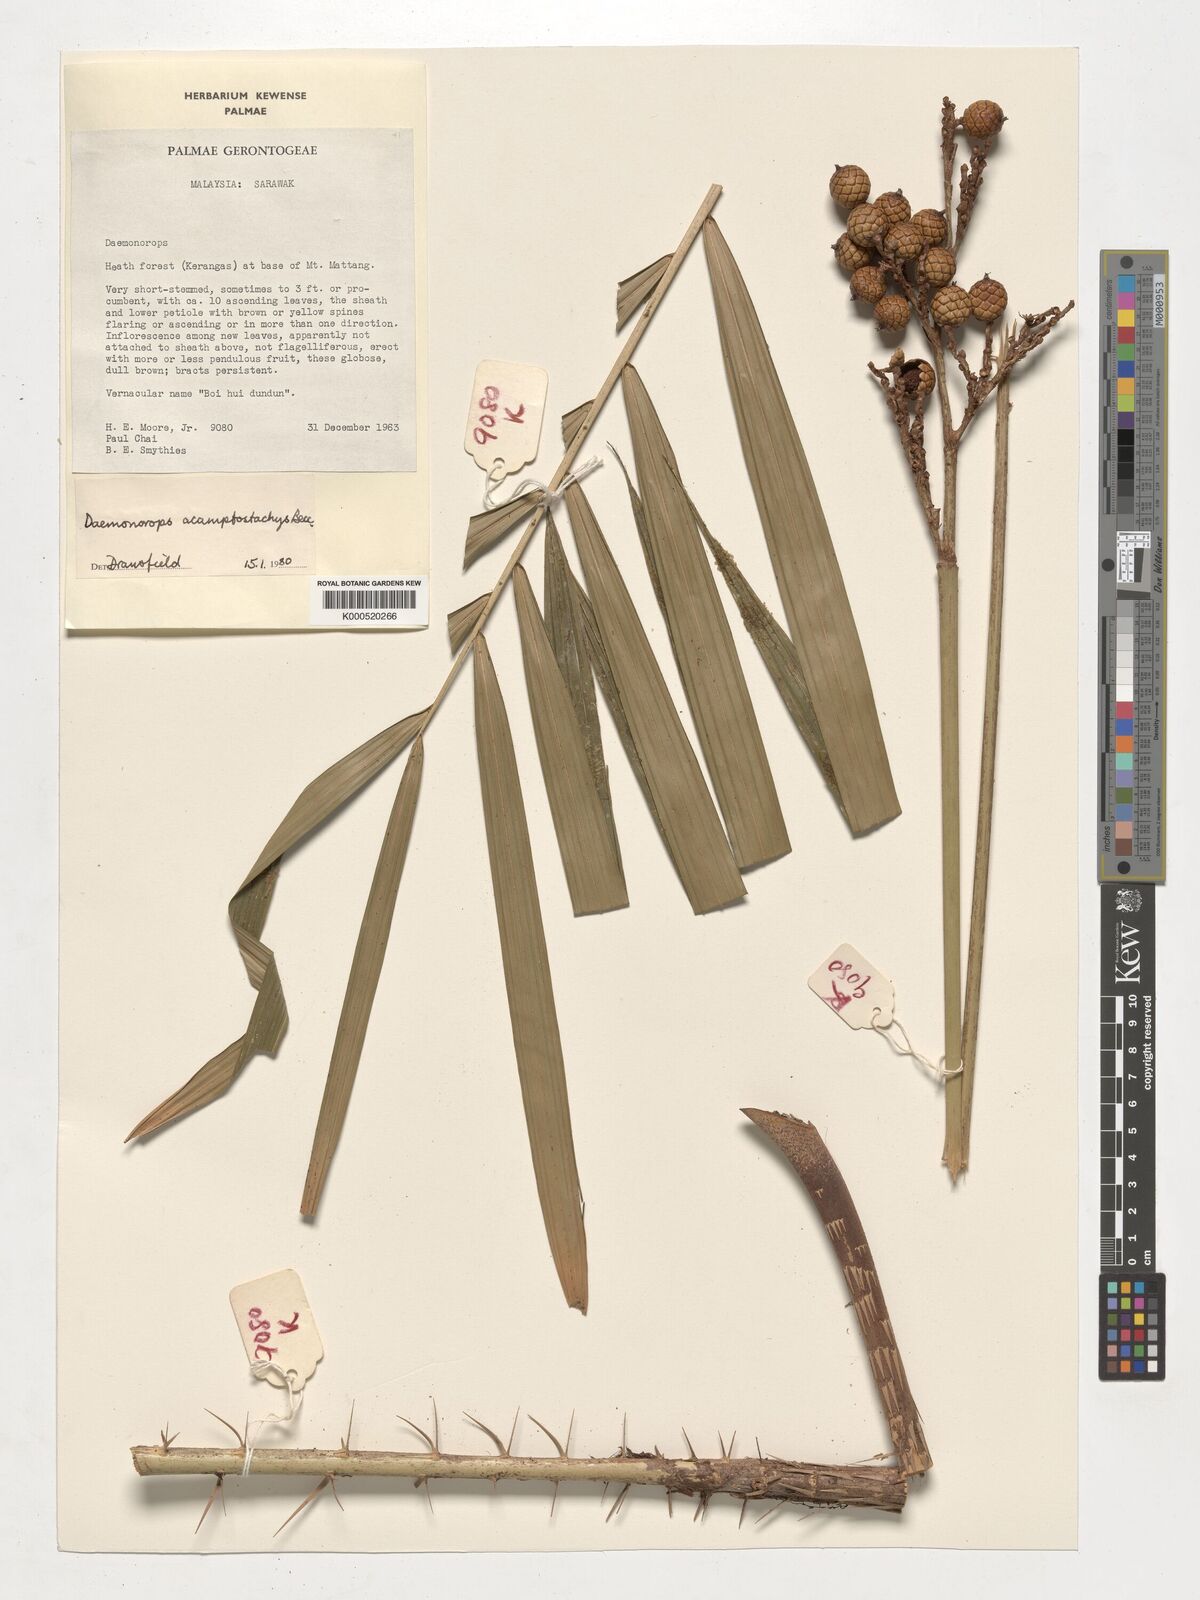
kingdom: Plantae
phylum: Tracheophyta
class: Liliopsida
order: Arecales
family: Arecaceae
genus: Calamus
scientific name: Calamus acamptostachys
